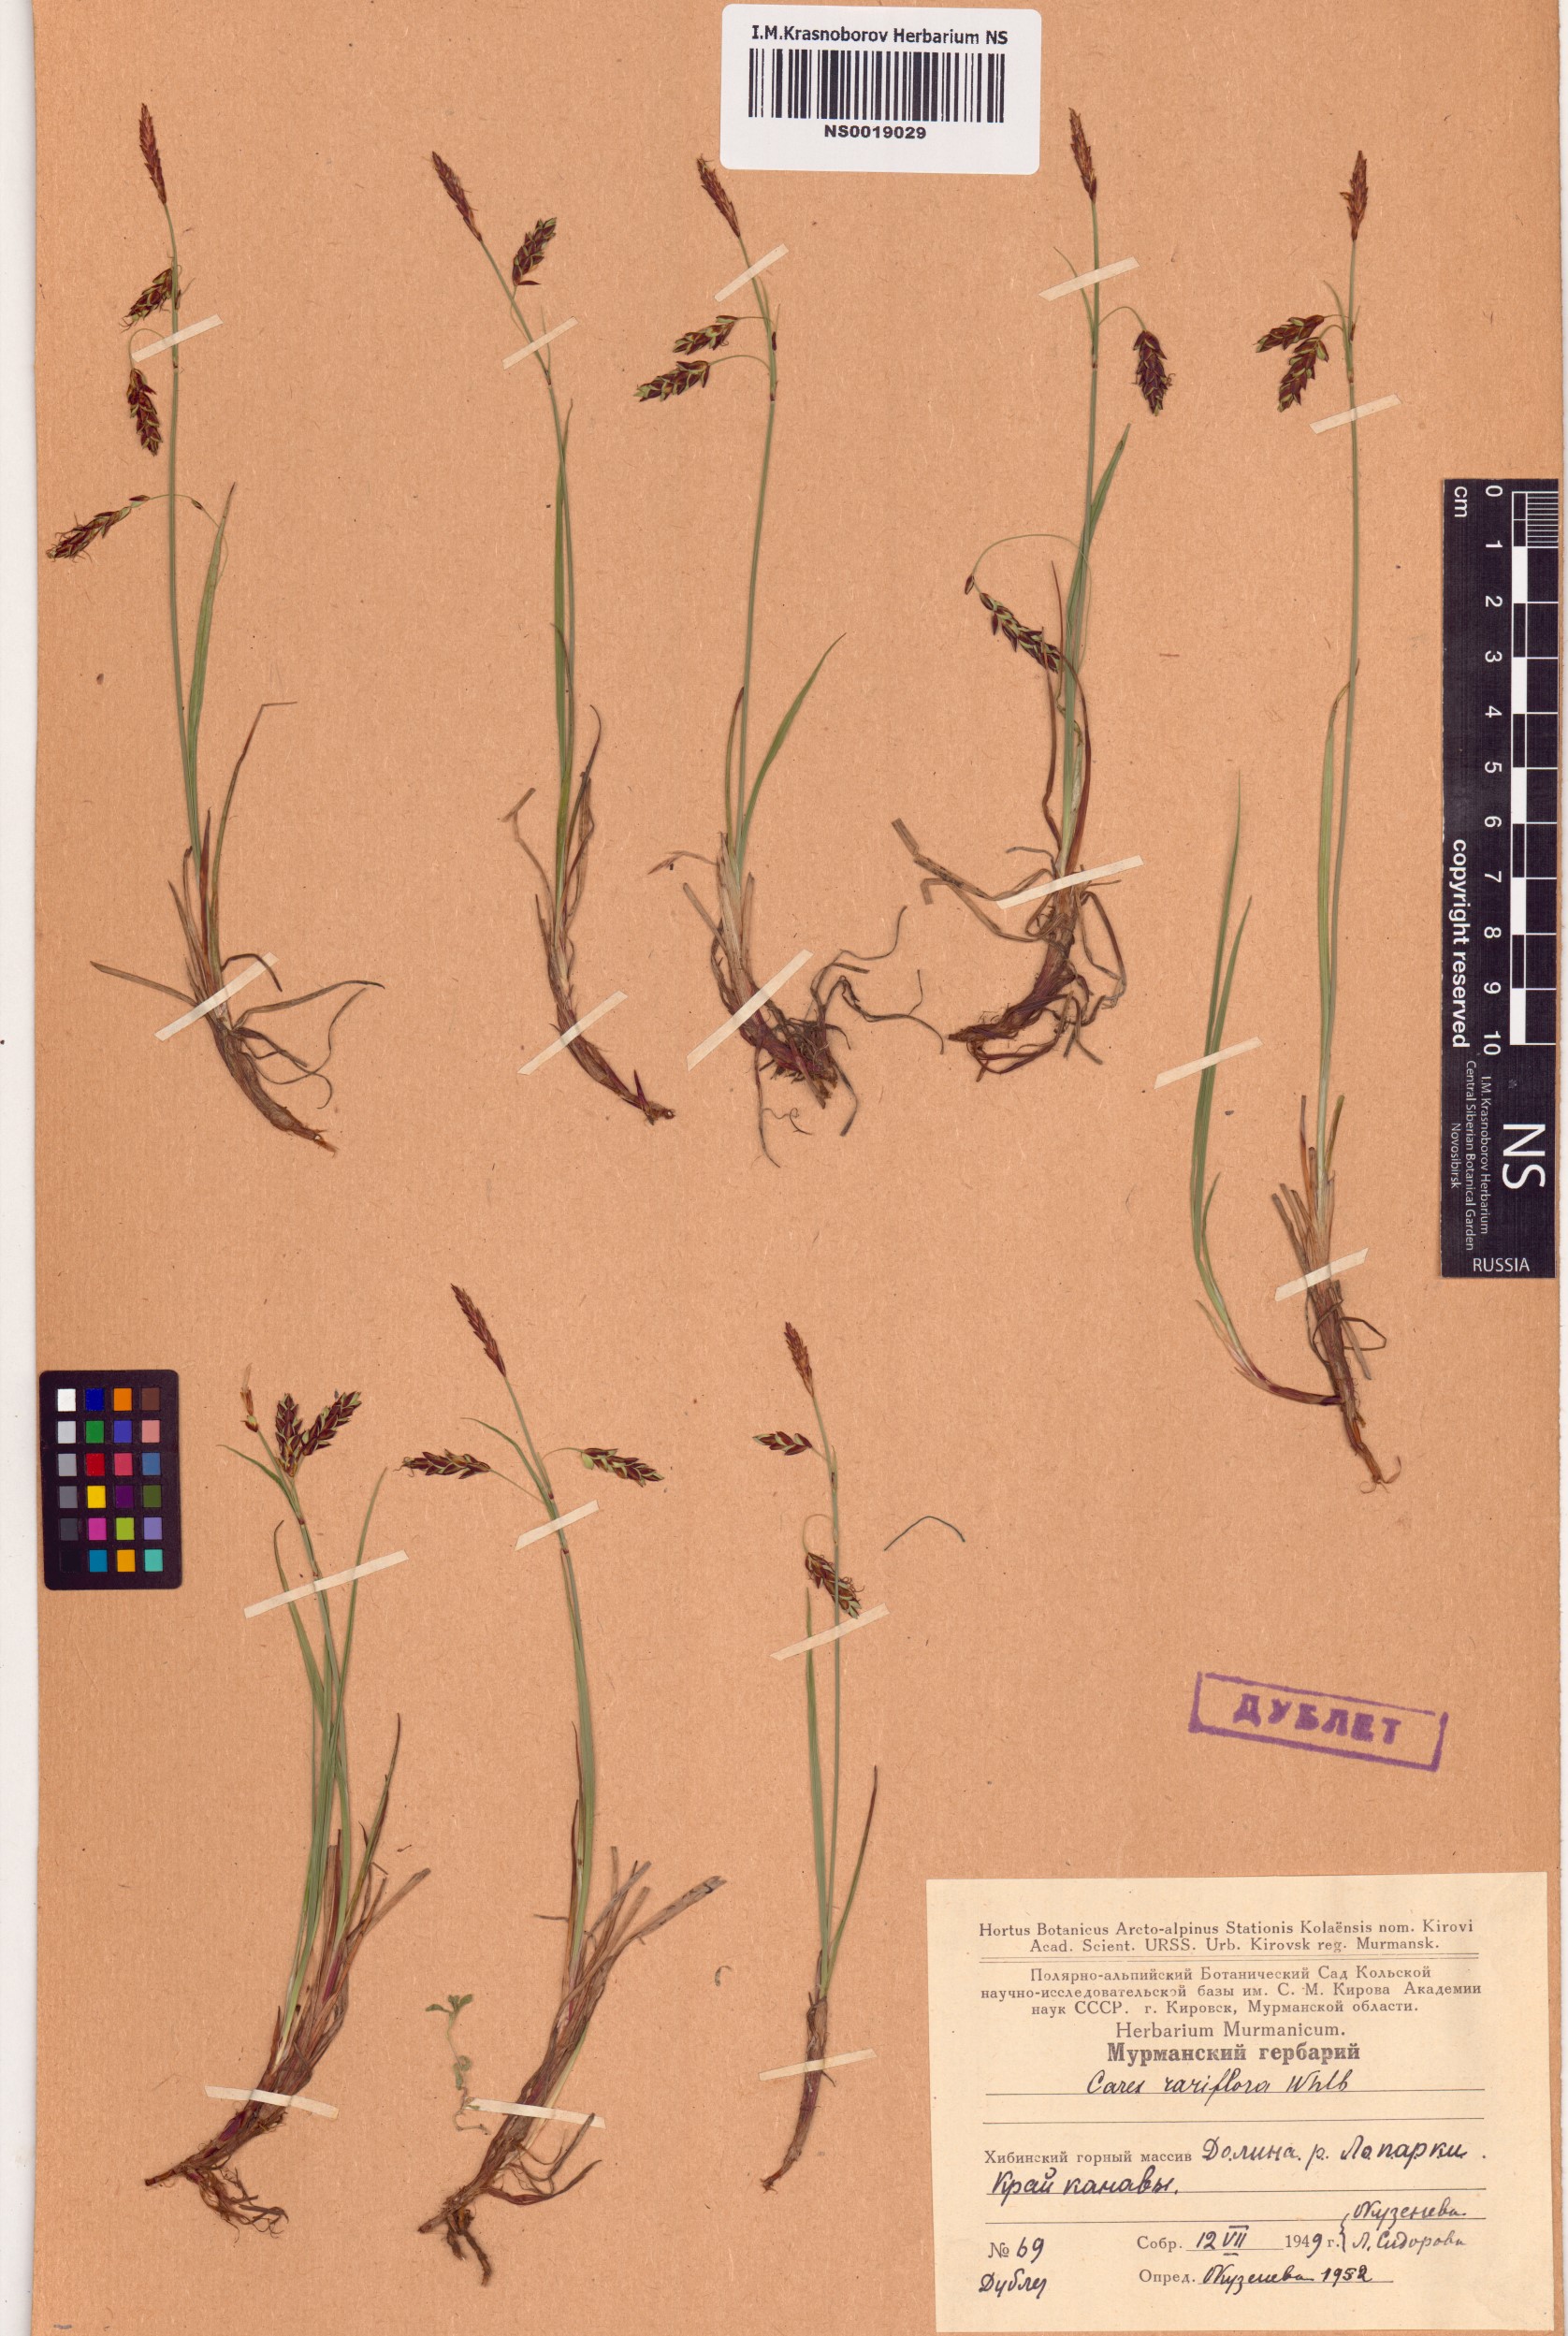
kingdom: Plantae
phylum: Tracheophyta
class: Liliopsida
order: Poales
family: Cyperaceae
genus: Carex
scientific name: Carex rariflora
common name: Loose-flowered alpine sedge
